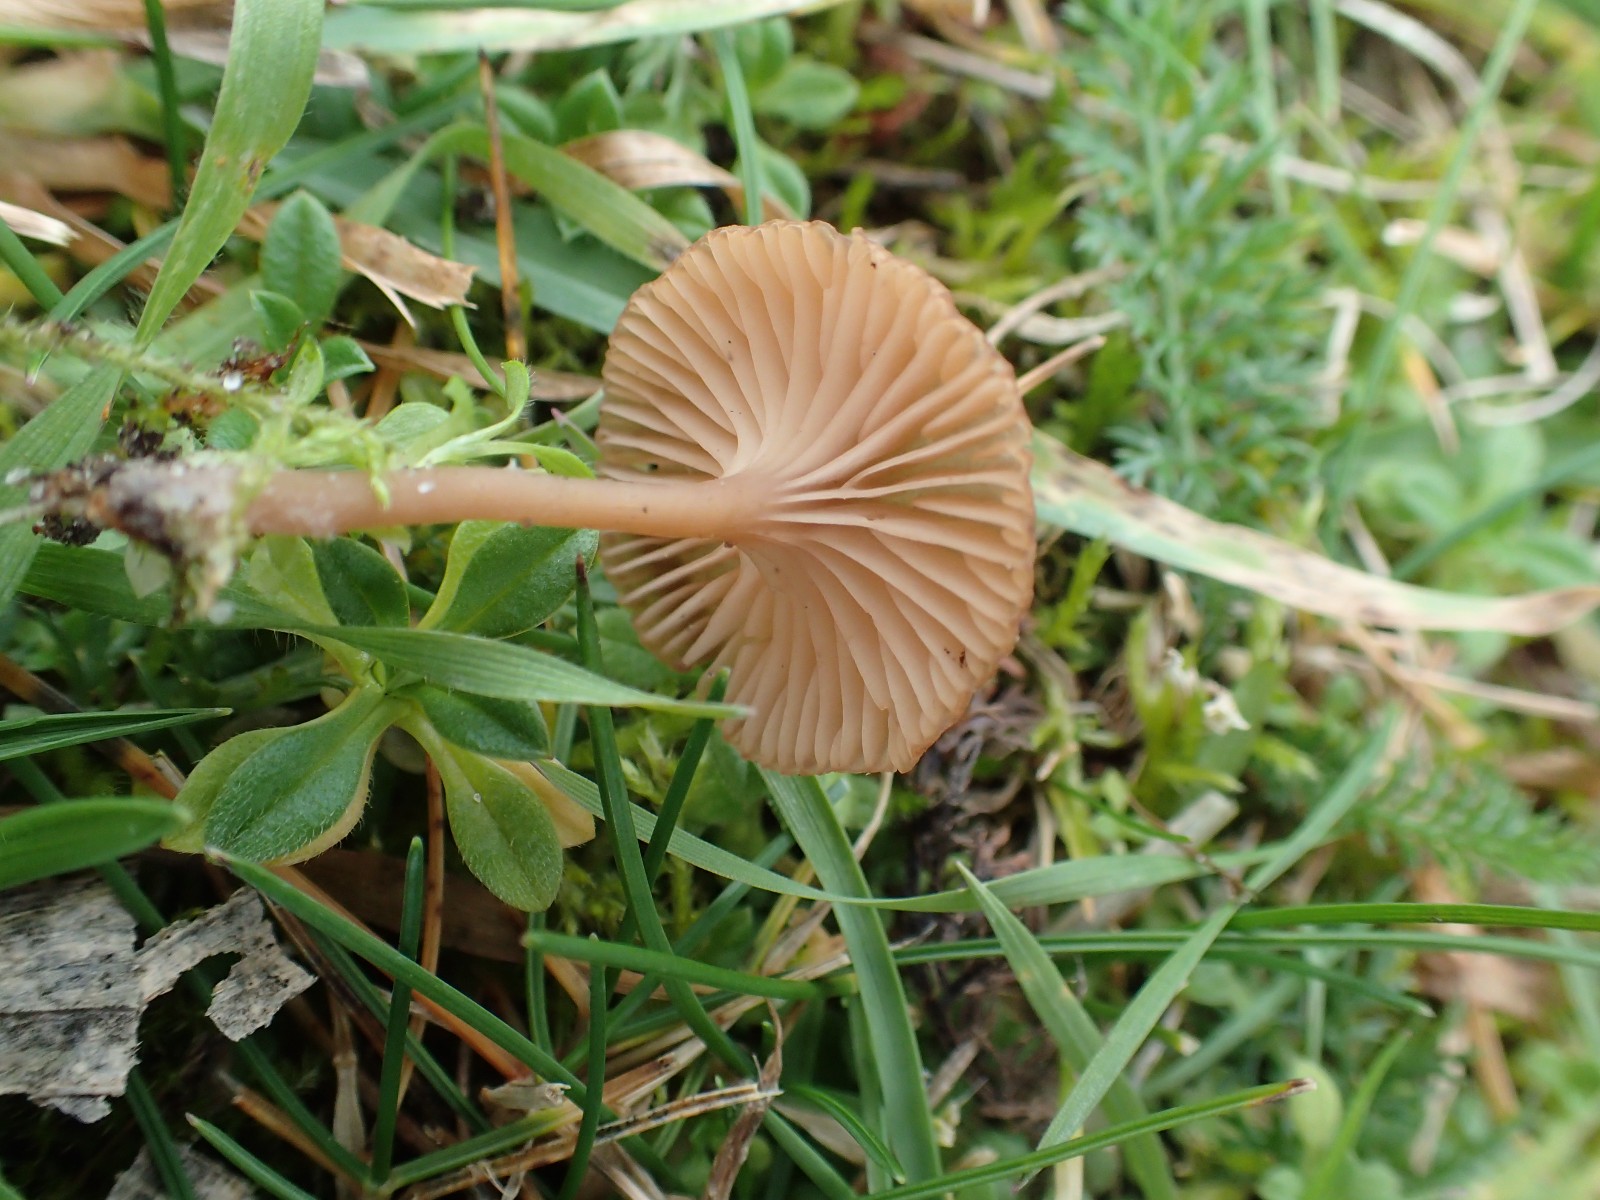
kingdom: Fungi
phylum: Basidiomycota
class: Agaricomycetes
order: Agaricales
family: Tricholomataceae
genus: Omphalina
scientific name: Omphalina pyxidata
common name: rødbrun navlehat
